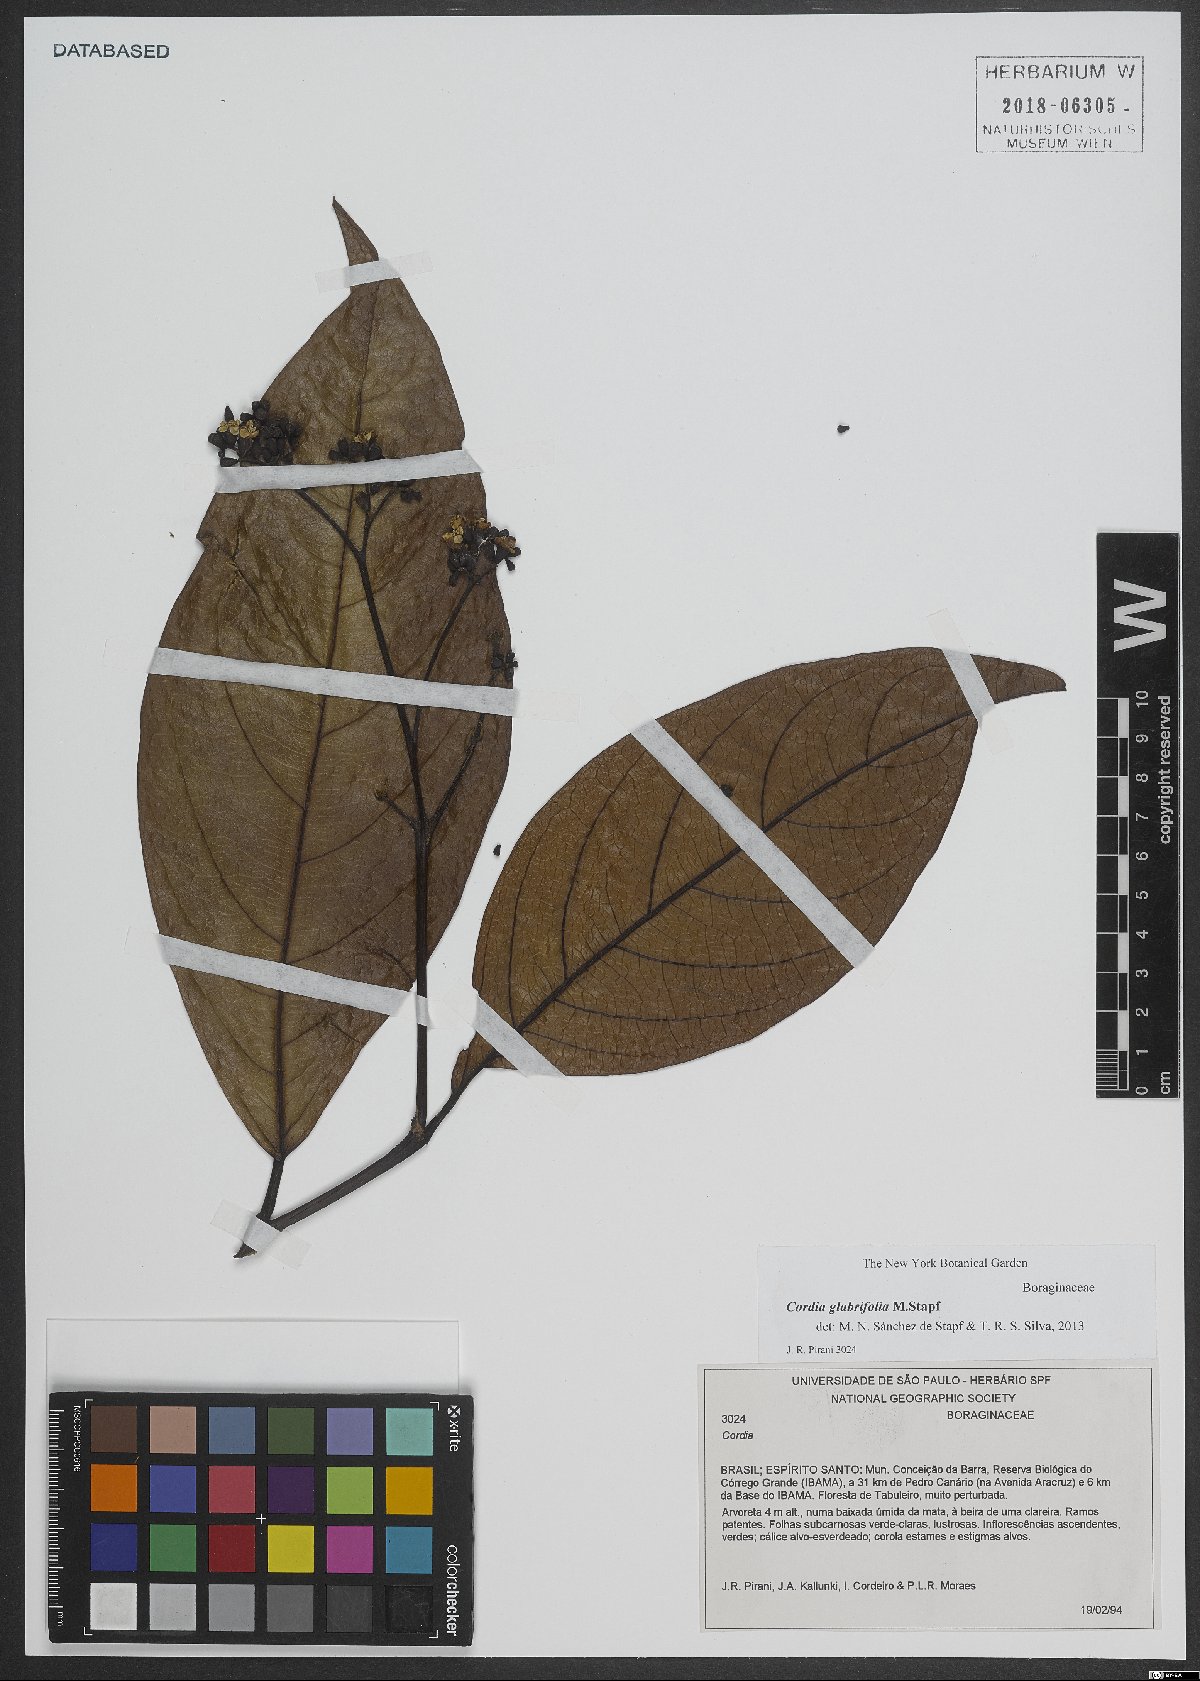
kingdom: Plantae
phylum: Tracheophyta
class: Magnoliopsida
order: Boraginales
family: Cordiaceae
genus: Cordia
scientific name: Cordia glabrifolia
